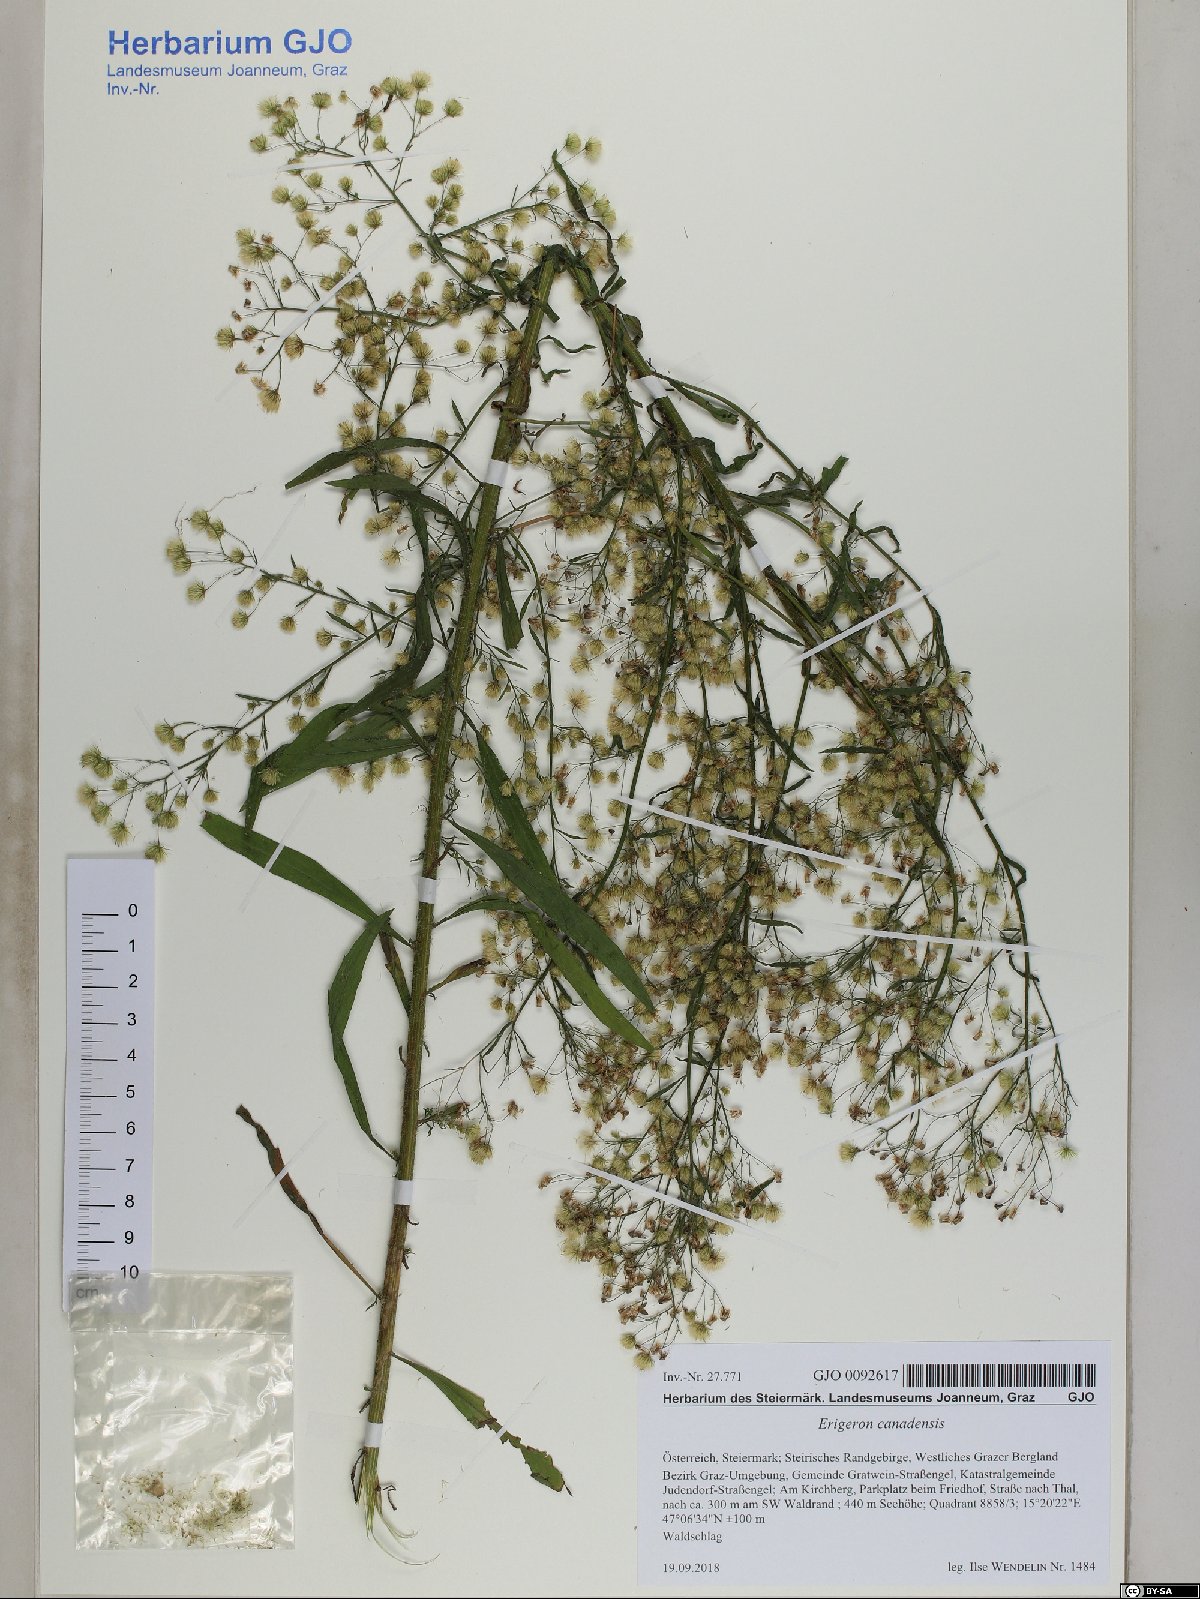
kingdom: Plantae
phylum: Tracheophyta
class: Magnoliopsida
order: Asterales
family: Asteraceae
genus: Erigeron
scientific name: Erigeron canadensis
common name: Canadian fleabane
